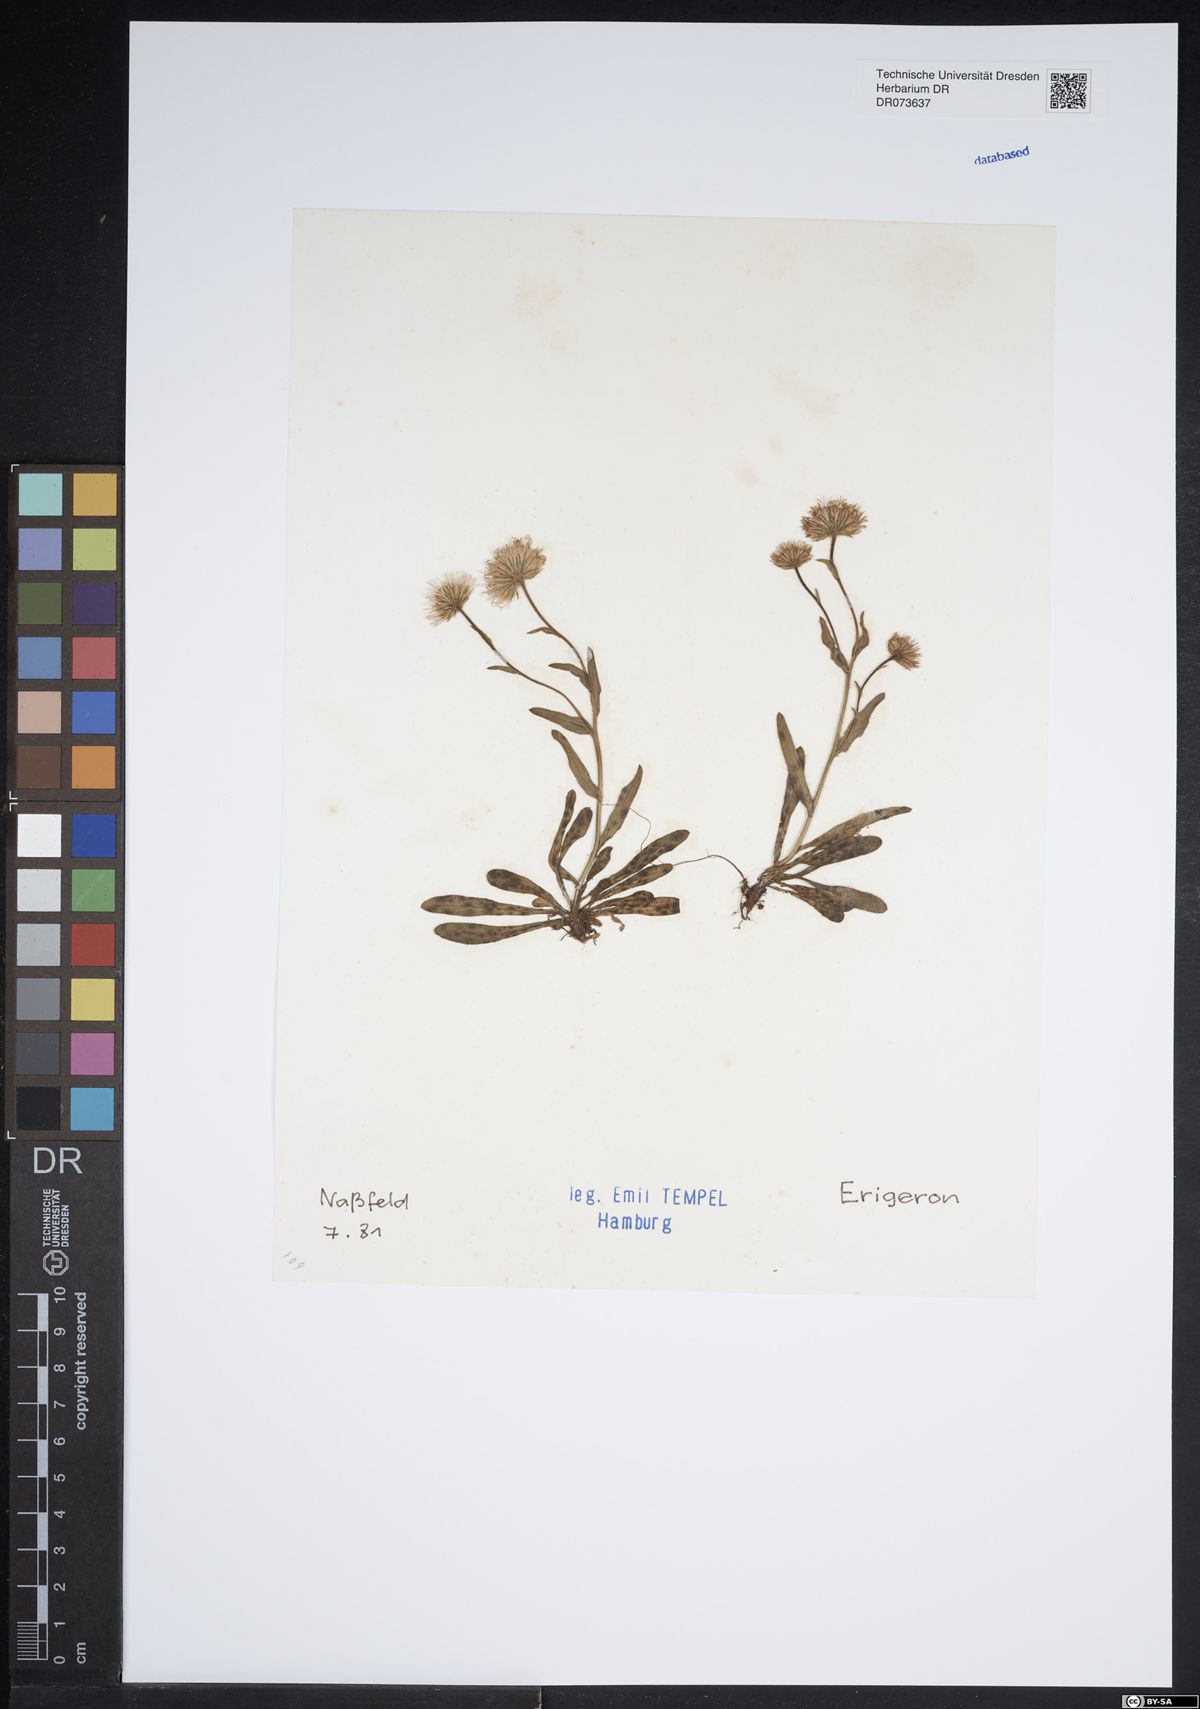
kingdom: Plantae
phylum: Tracheophyta
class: Magnoliopsida
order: Asterales
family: Asteraceae
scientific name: Asteraceae
